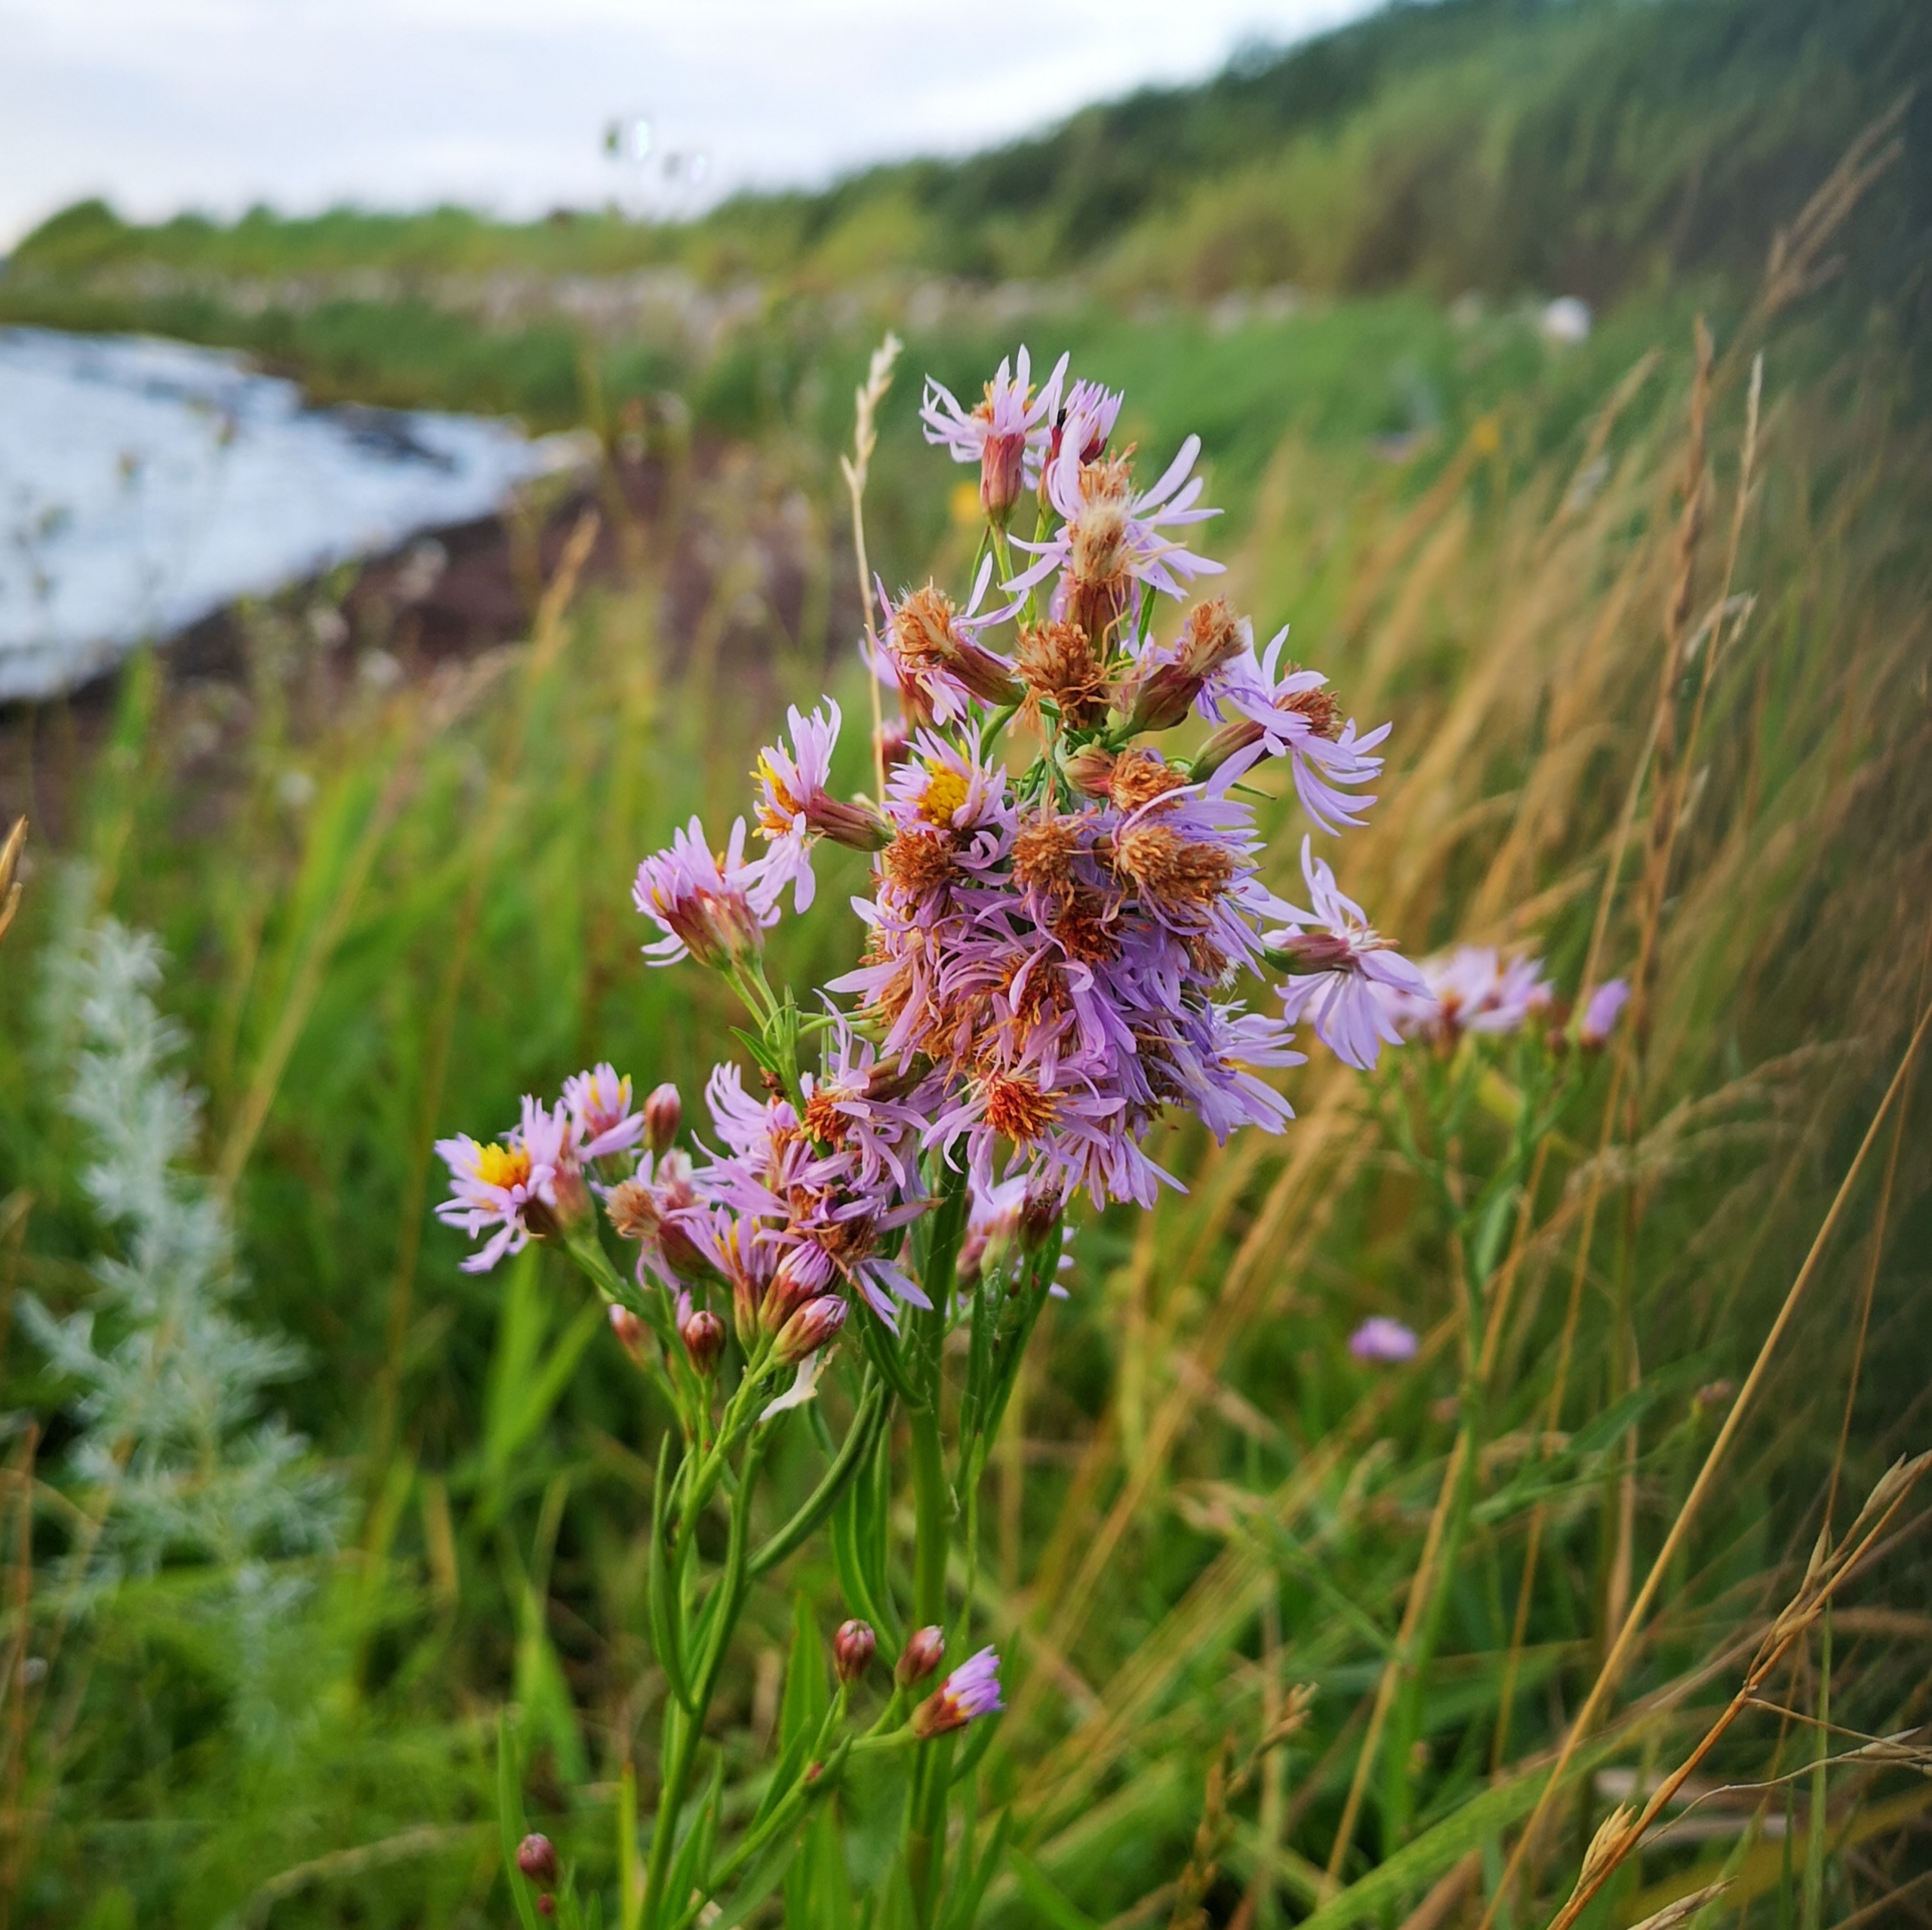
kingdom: Plantae
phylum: Tracheophyta
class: Magnoliopsida
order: Asterales
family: Asteraceae
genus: Tripolium
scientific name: Tripolium pannonicum
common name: Strandasters
